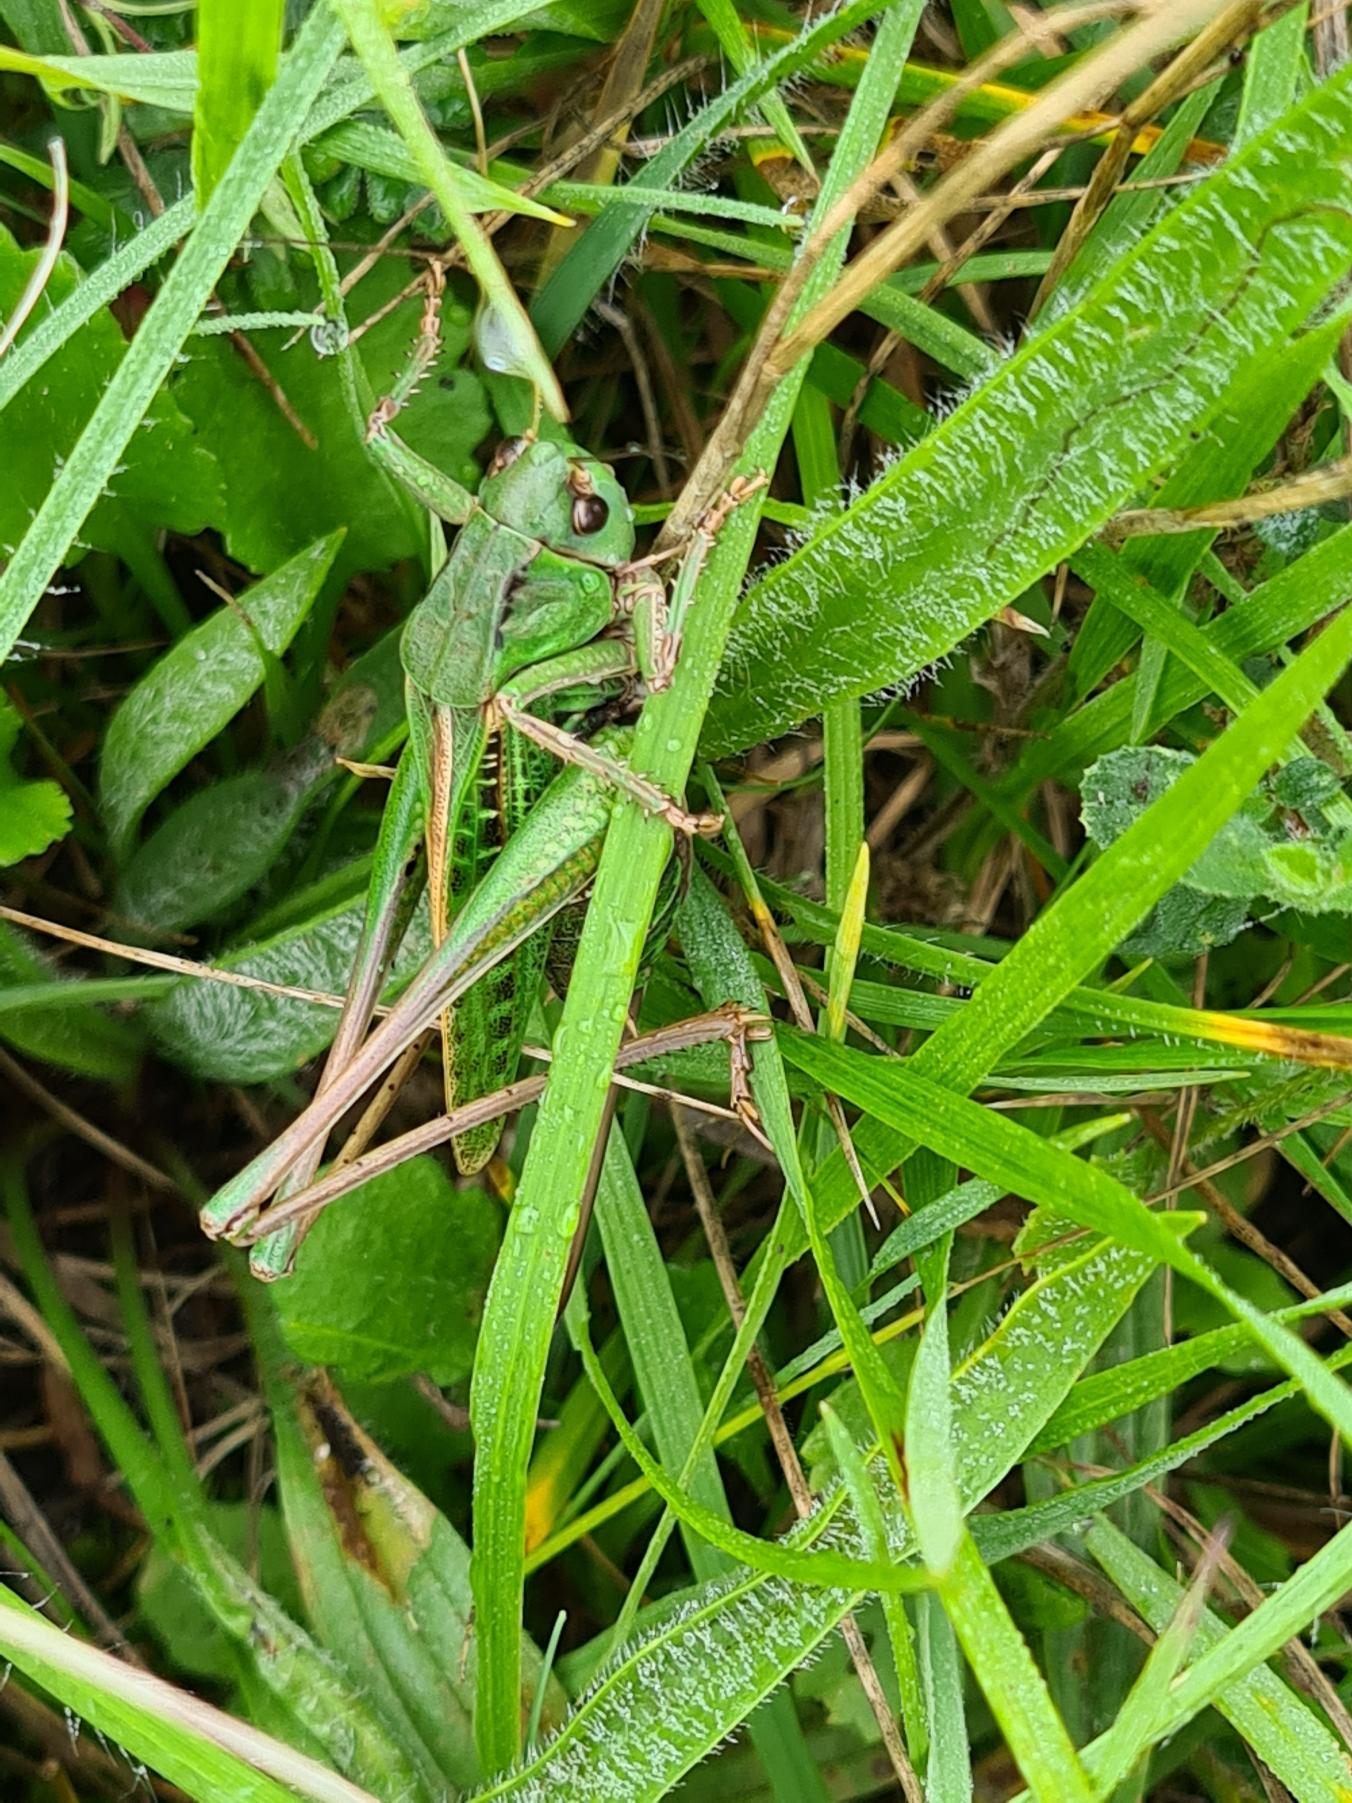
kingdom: Animalia
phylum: Arthropoda
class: Insecta
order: Orthoptera
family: Tettigoniidae
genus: Decticus
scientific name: Decticus verrucivorus
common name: Vortebider
